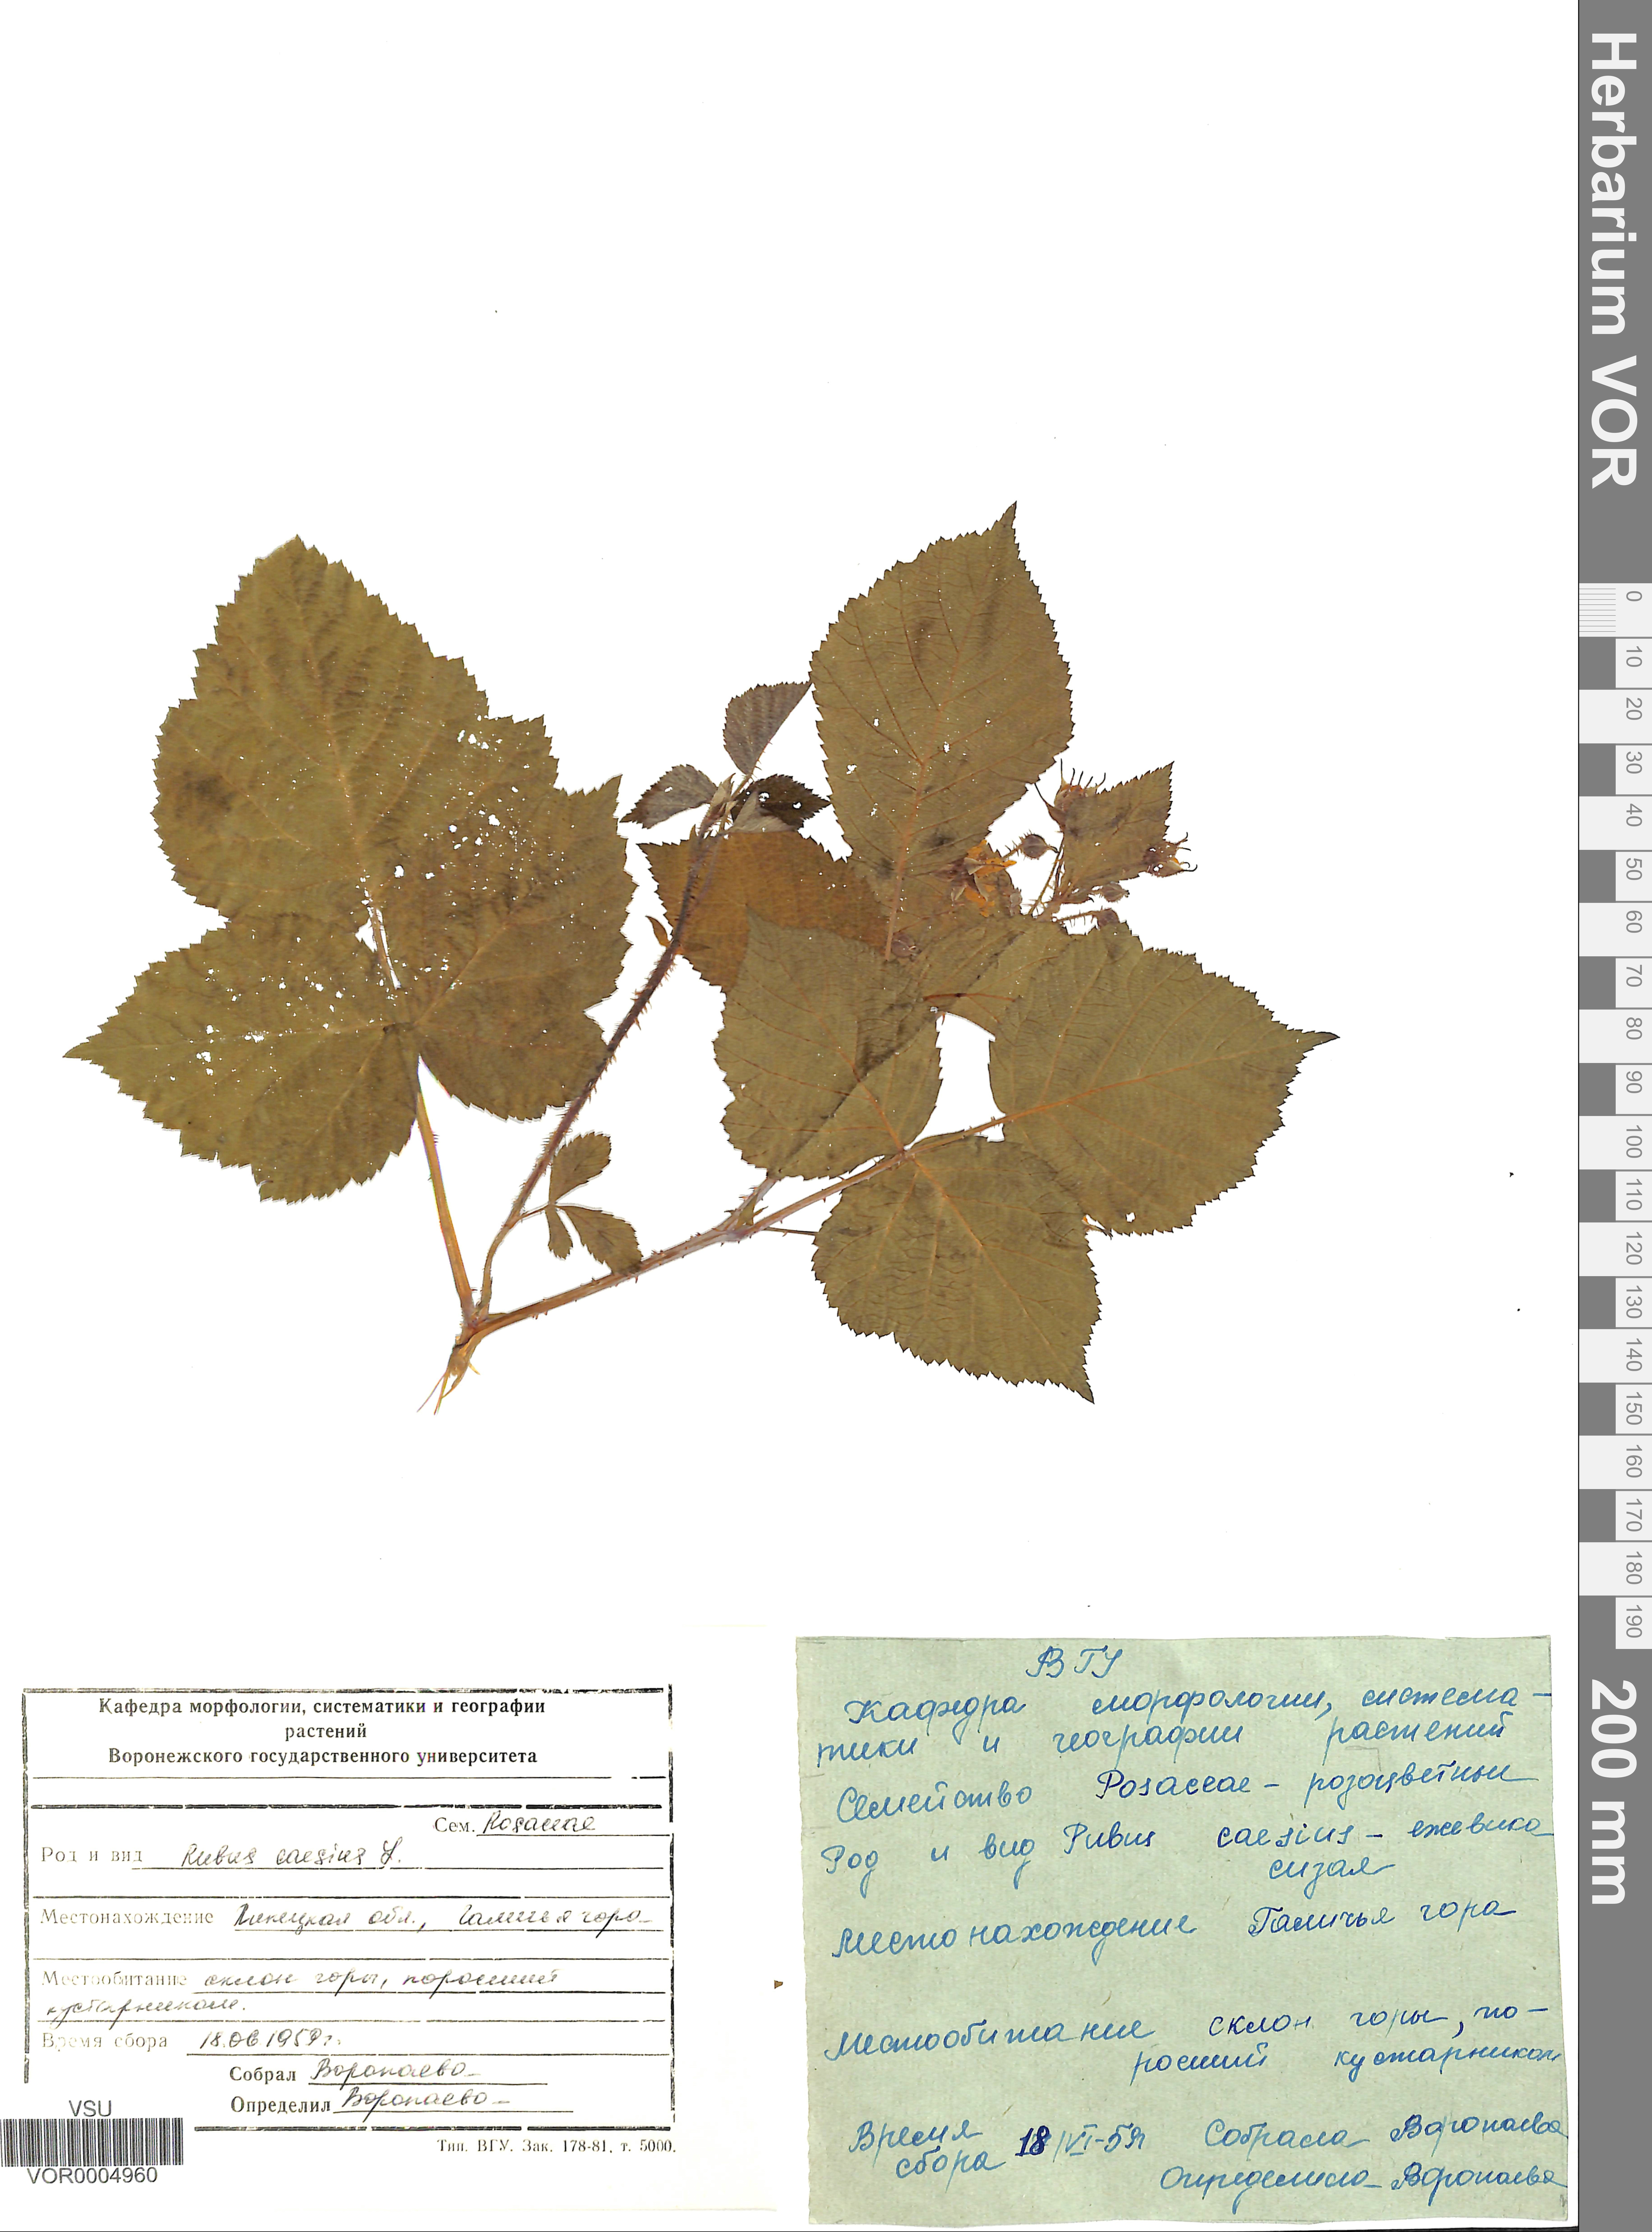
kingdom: Plantae
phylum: Tracheophyta
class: Magnoliopsida
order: Rosales
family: Rosaceae
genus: Rubus
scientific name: Rubus caesius
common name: Dewberry
